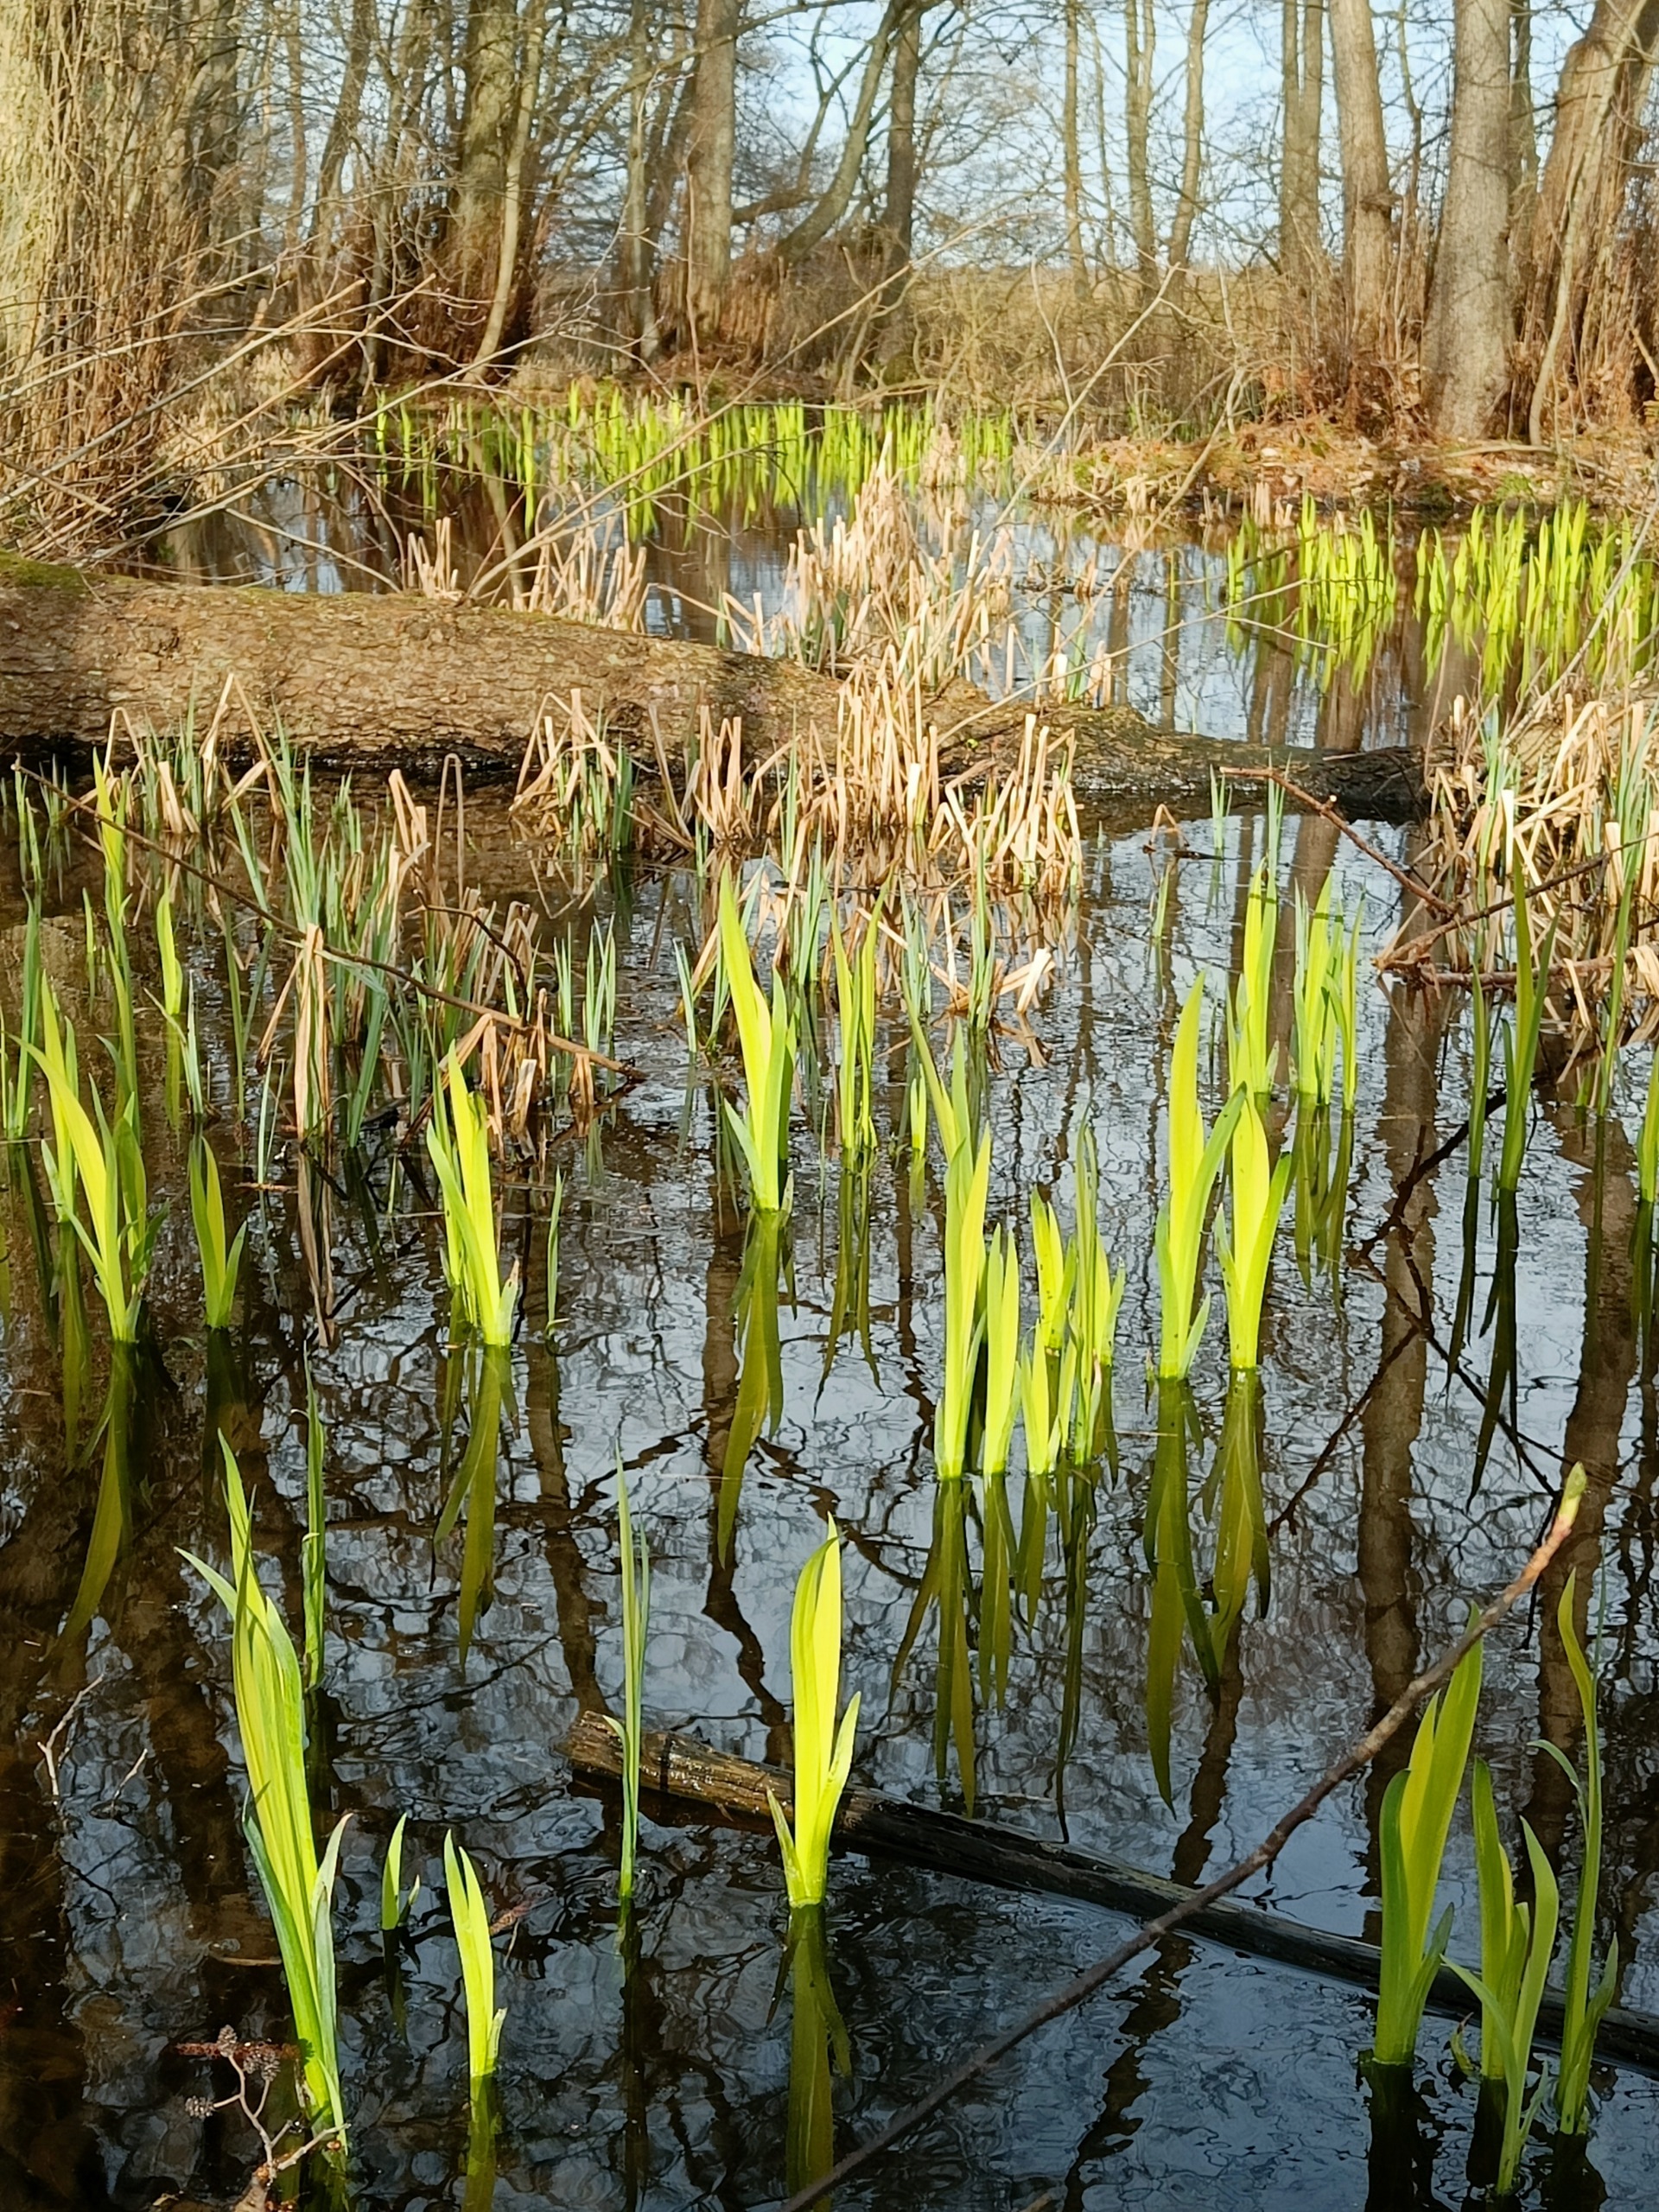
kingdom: Plantae
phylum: Tracheophyta
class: Liliopsida
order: Asparagales
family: Iridaceae
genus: Iris
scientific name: Iris pseudacorus
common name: Gul iris
